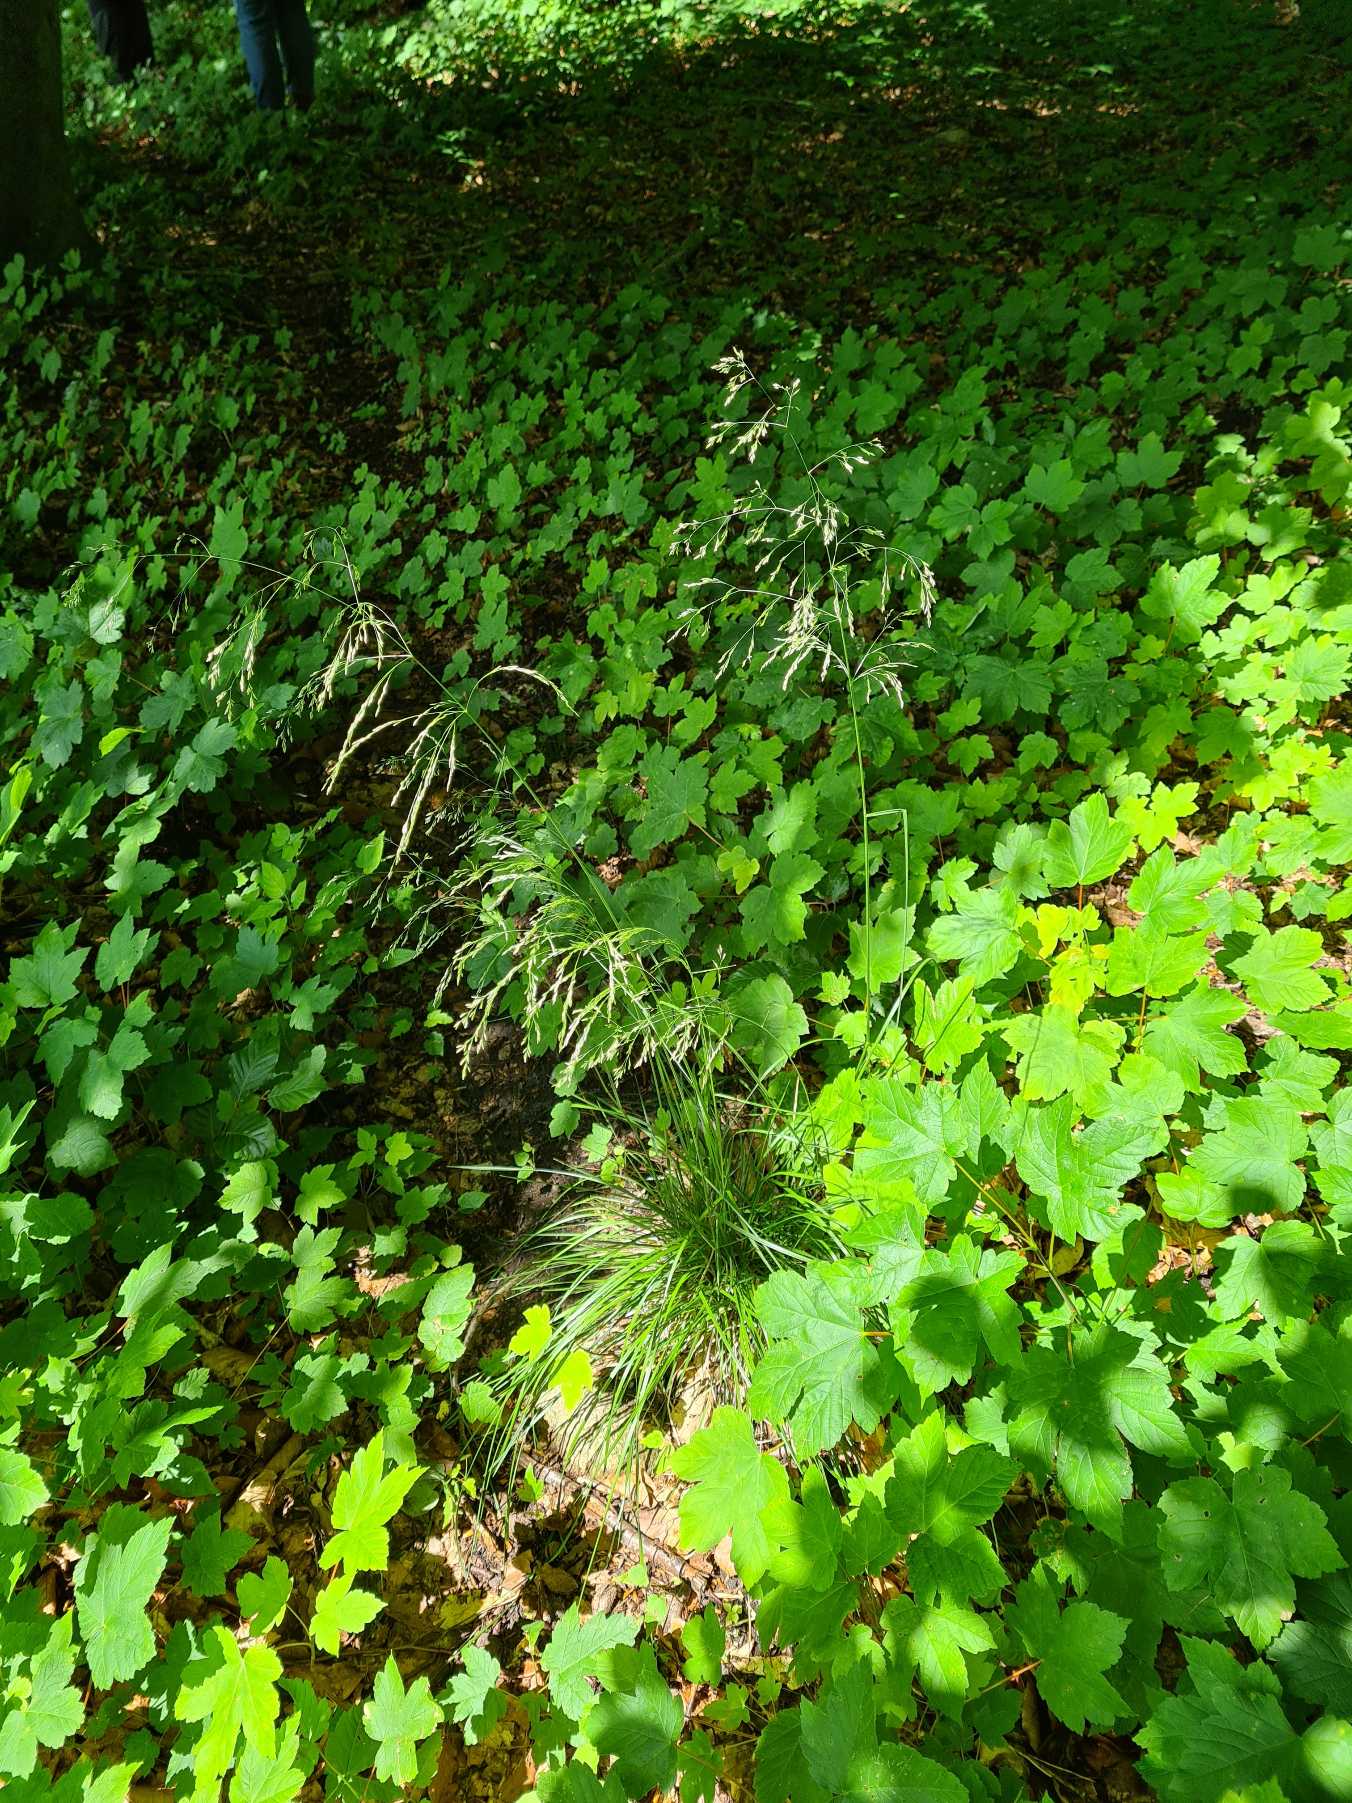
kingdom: Plantae
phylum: Tracheophyta
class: Liliopsida
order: Poales
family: Poaceae
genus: Deschampsia
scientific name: Deschampsia cespitosa
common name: Mose-bunke
